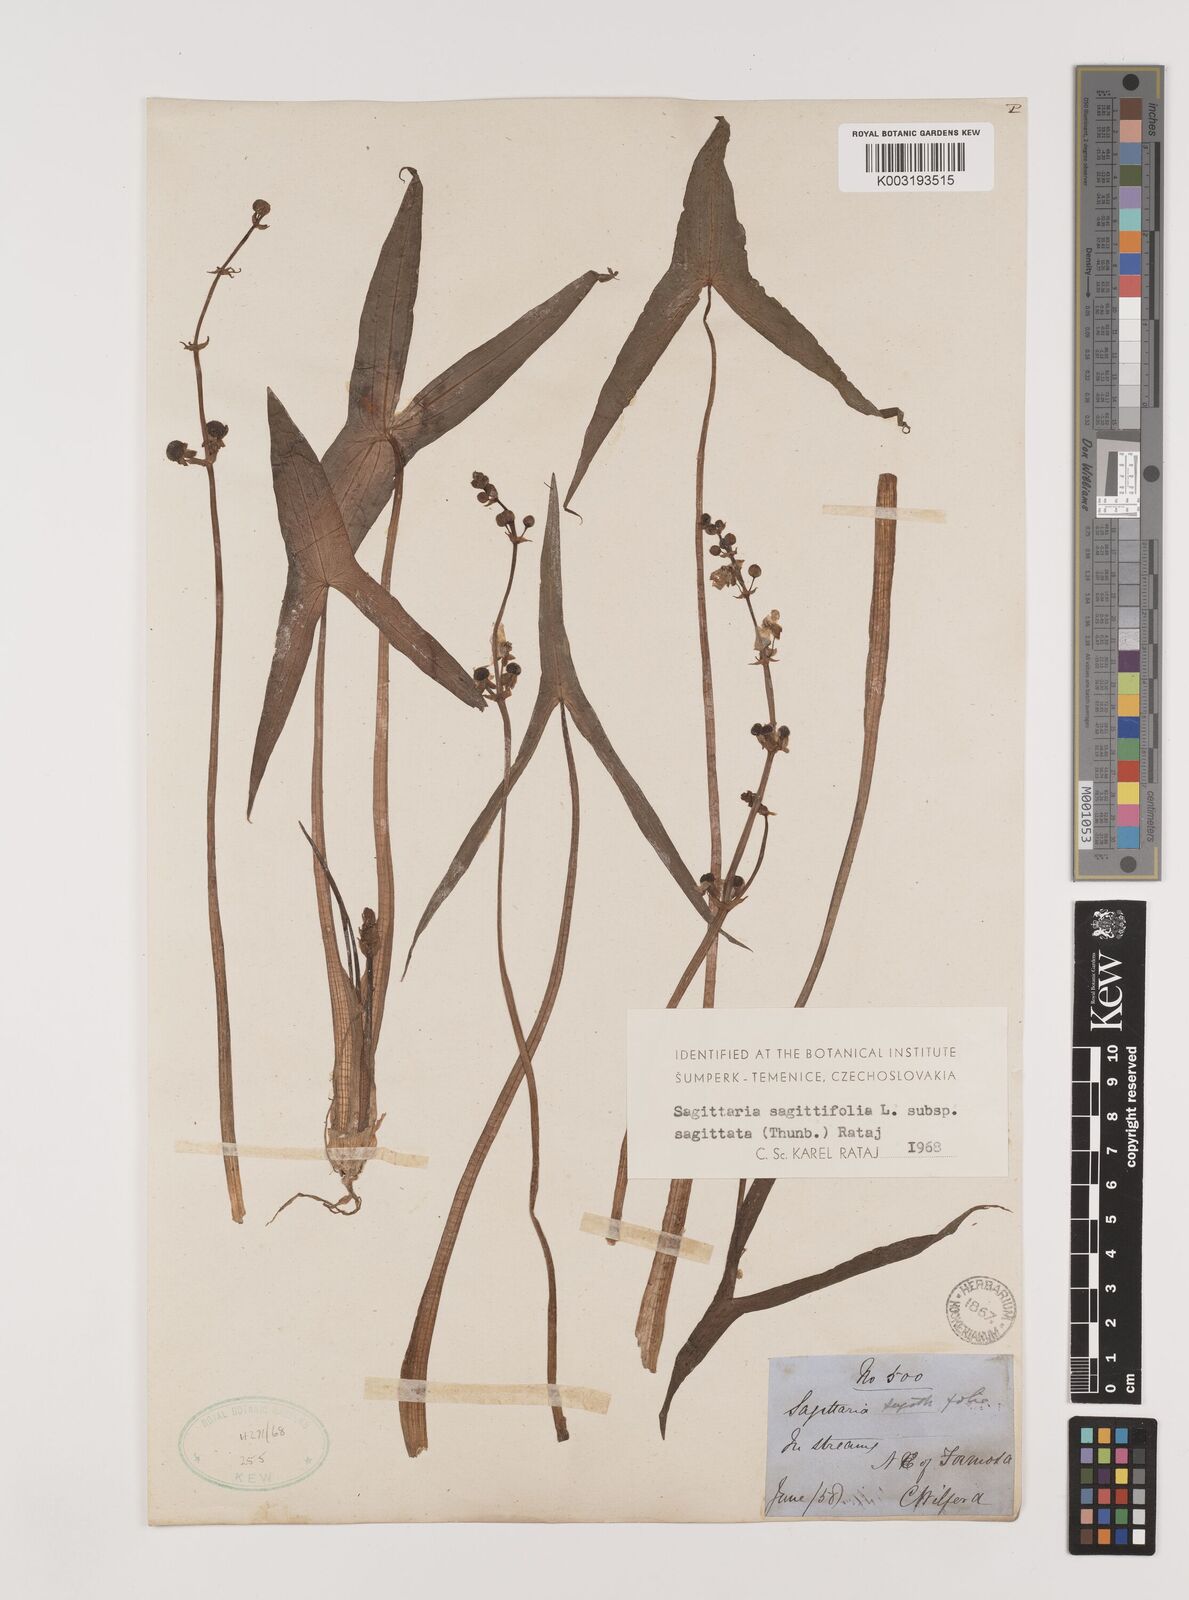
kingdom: Plantae
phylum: Tracheophyta
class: Liliopsida
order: Alismatales
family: Alismataceae
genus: Sagittaria
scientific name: Sagittaria sagittifolia
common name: Arrowhead
